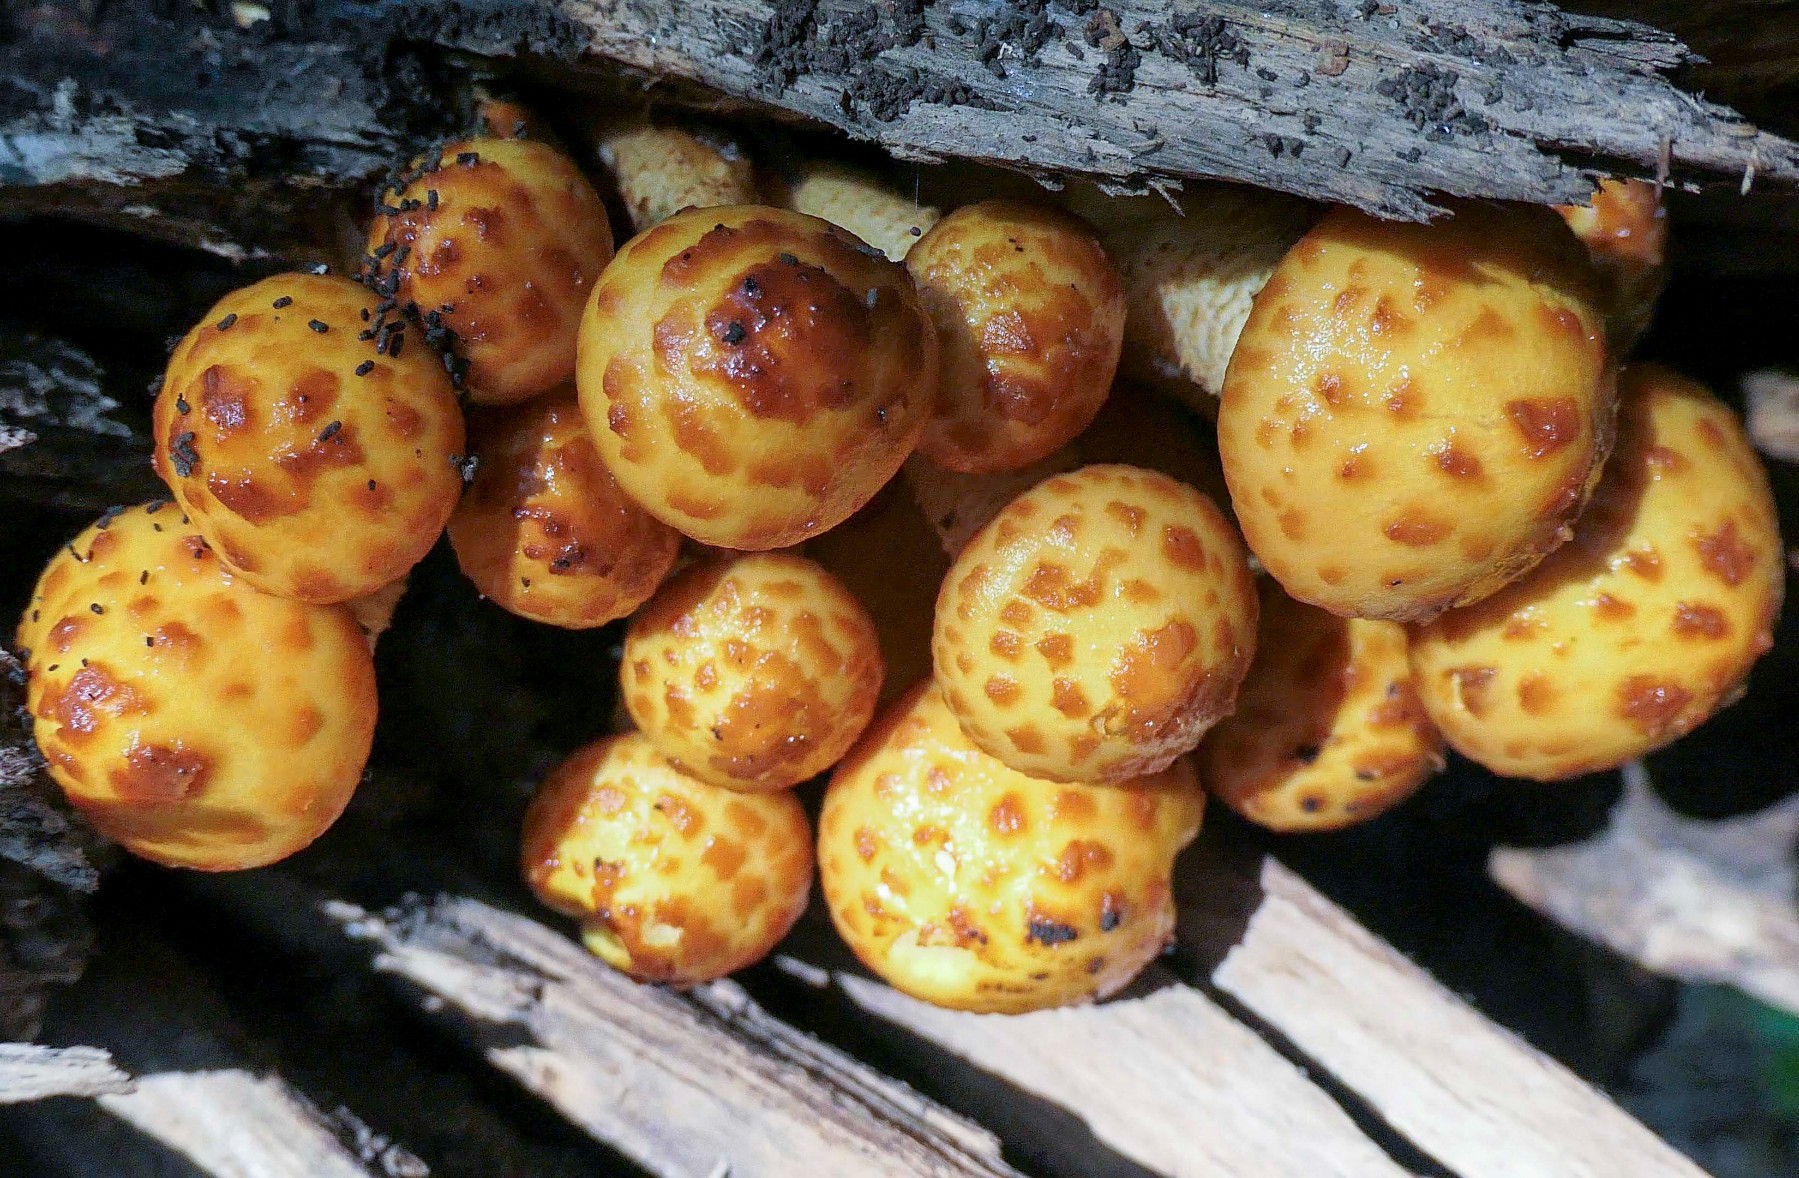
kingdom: Fungi
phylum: Basidiomycota
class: Agaricomycetes
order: Agaricales
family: Strophariaceae
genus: Pholiota
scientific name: Pholiota adiposa
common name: højtsiddende skælhat
